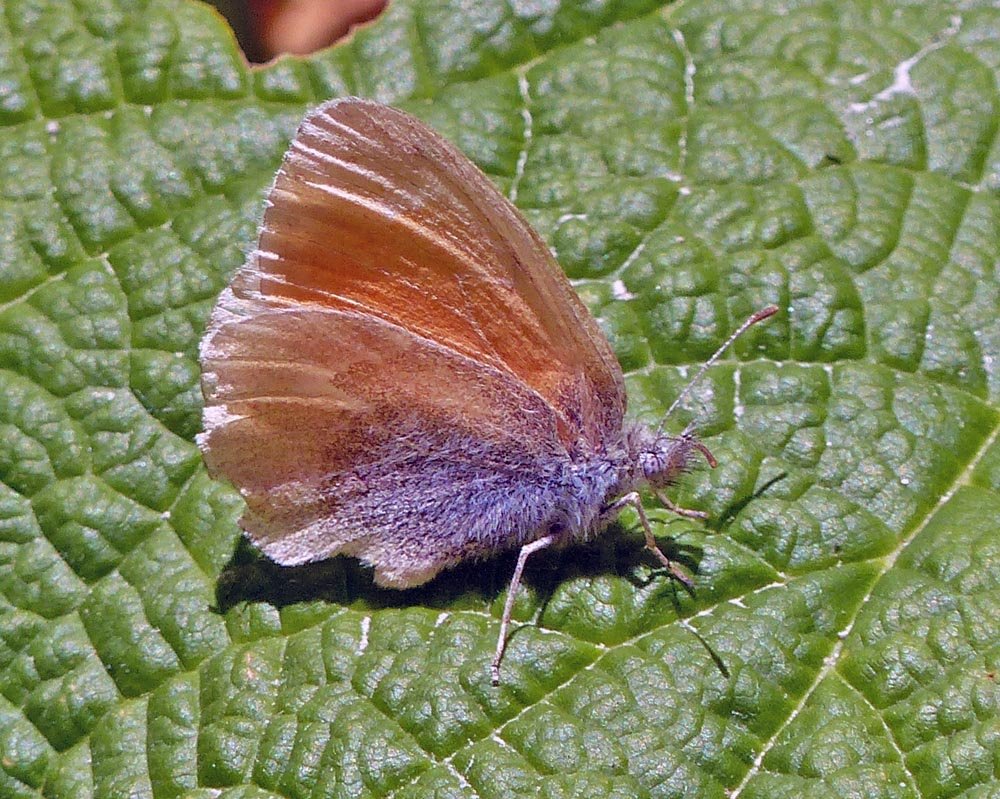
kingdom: Animalia
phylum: Arthropoda
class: Insecta
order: Lepidoptera
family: Nymphalidae
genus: Coenonympha
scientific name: Coenonympha tullia
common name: Large Heath
